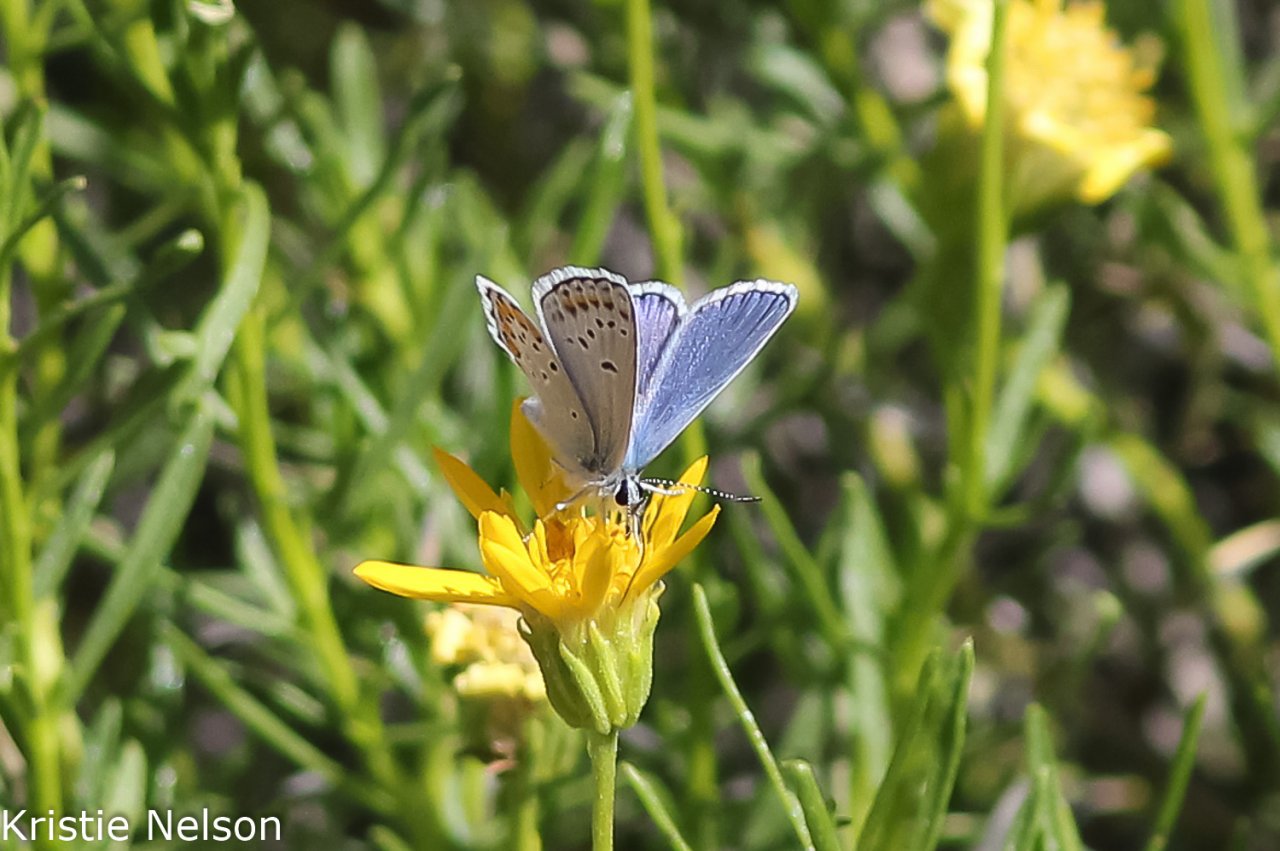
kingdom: Animalia
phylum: Arthropoda
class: Insecta
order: Lepidoptera
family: Lycaenidae
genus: Lycaeides
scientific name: Lycaeides melissa
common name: Melissa Blue
